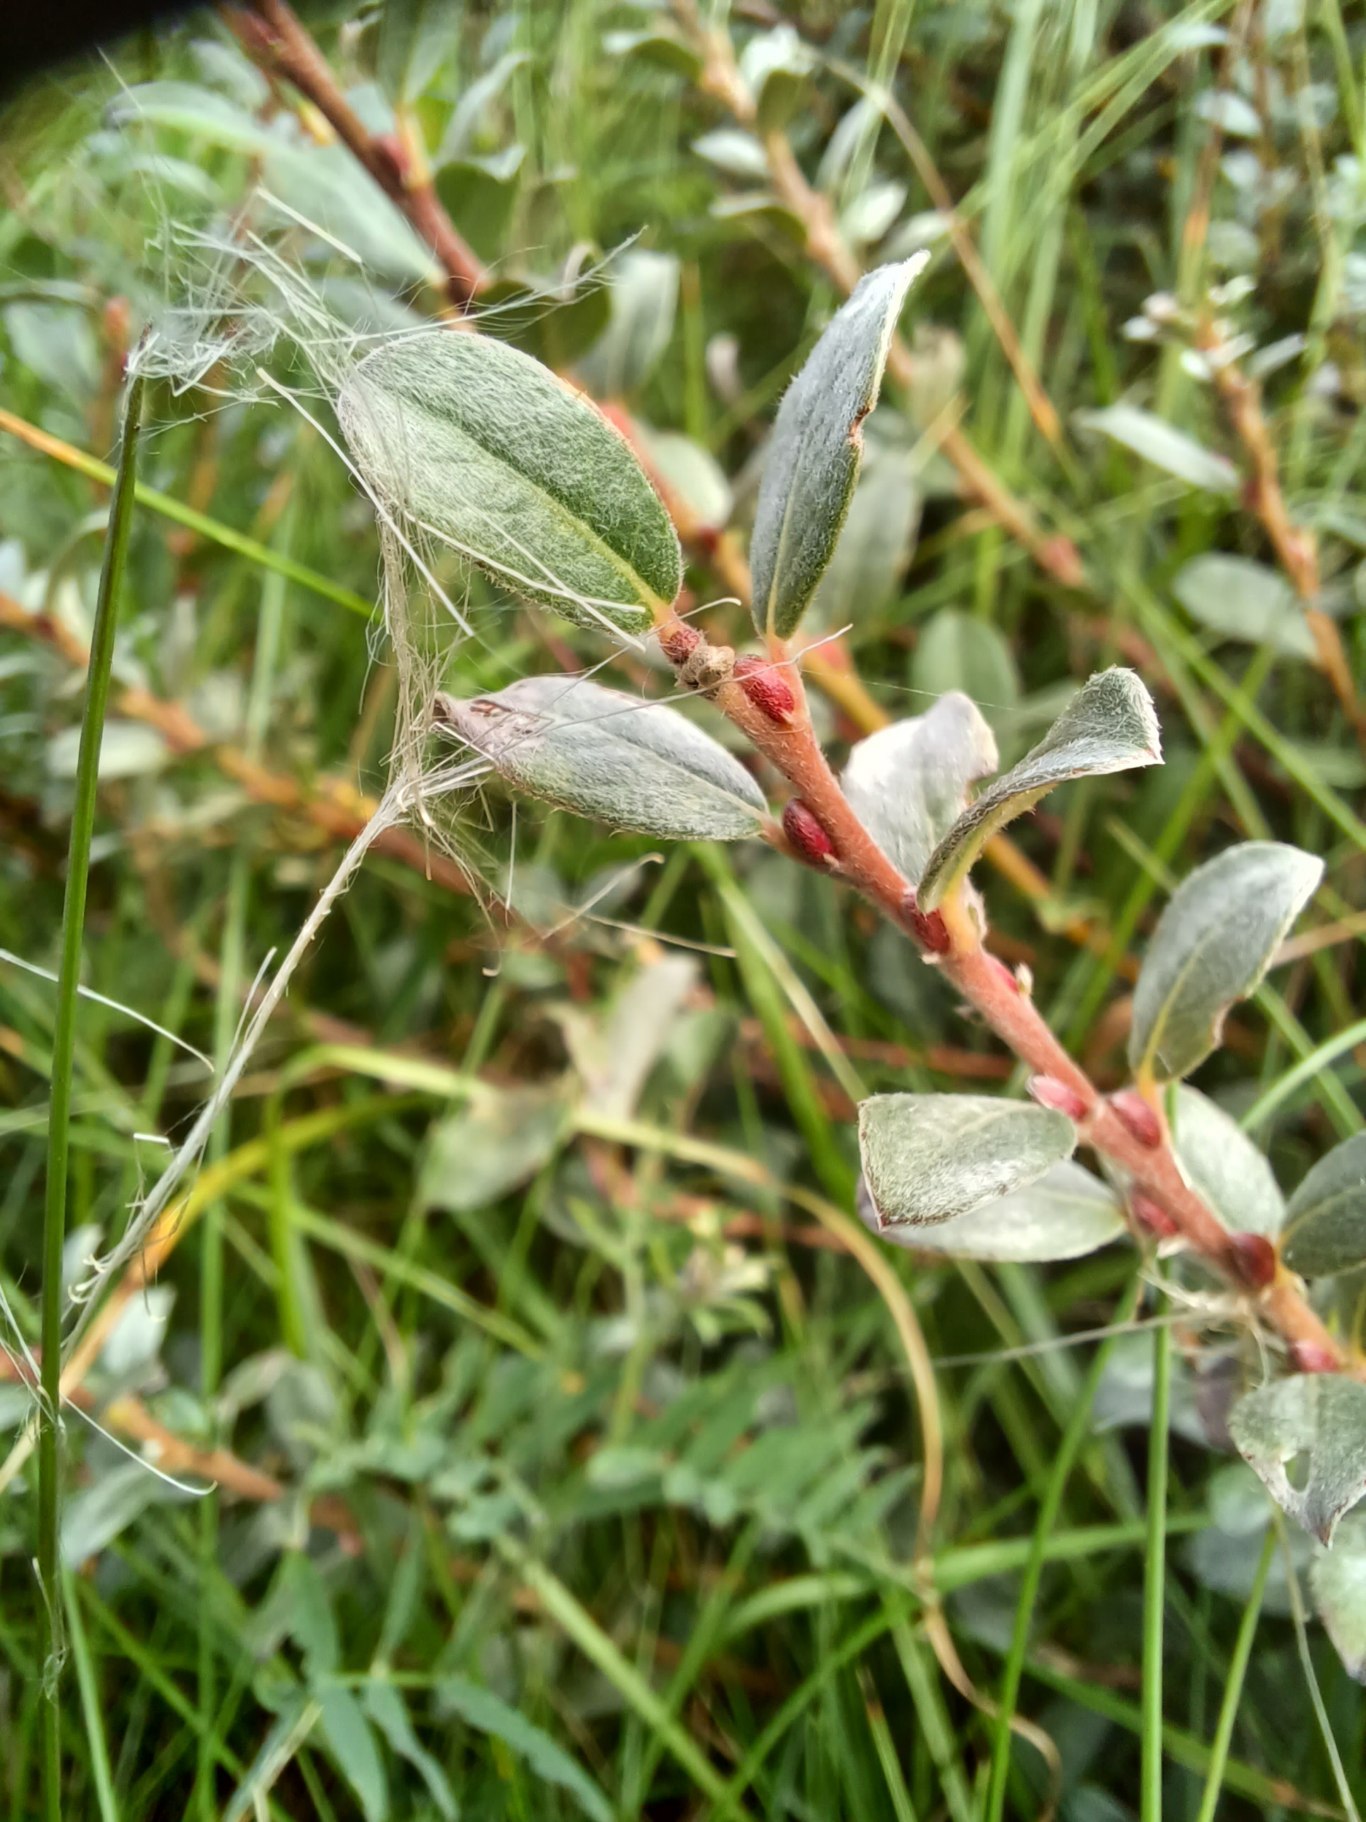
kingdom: Plantae
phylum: Tracheophyta
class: Magnoliopsida
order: Malpighiales
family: Salicaceae
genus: Salix
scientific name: Salix repens
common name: Gråris
